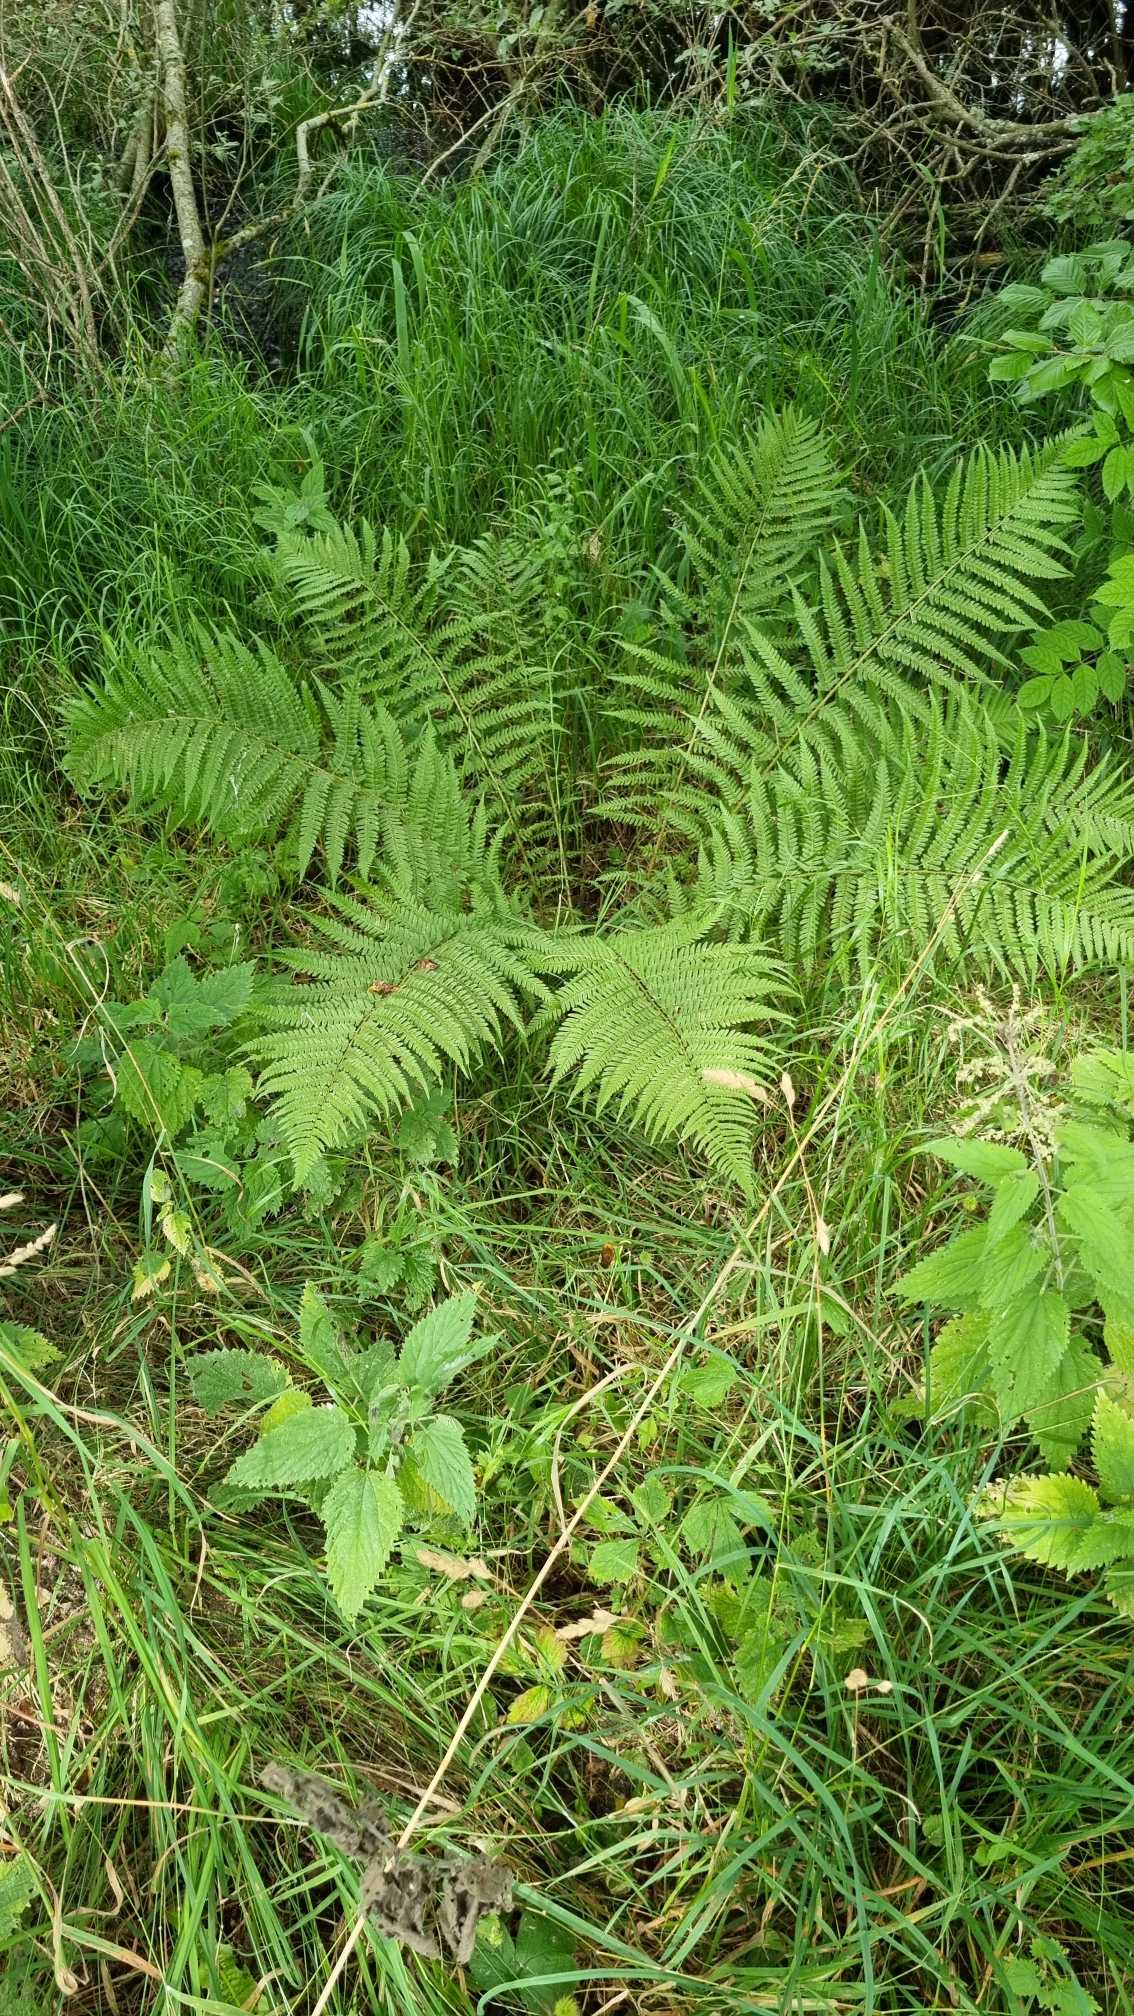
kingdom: Plantae
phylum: Tracheophyta
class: Polypodiopsida
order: Polypodiales
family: Dryopteridaceae
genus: Dryopteris
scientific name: Dryopteris filix-mas
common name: Almindelig mangeløv
